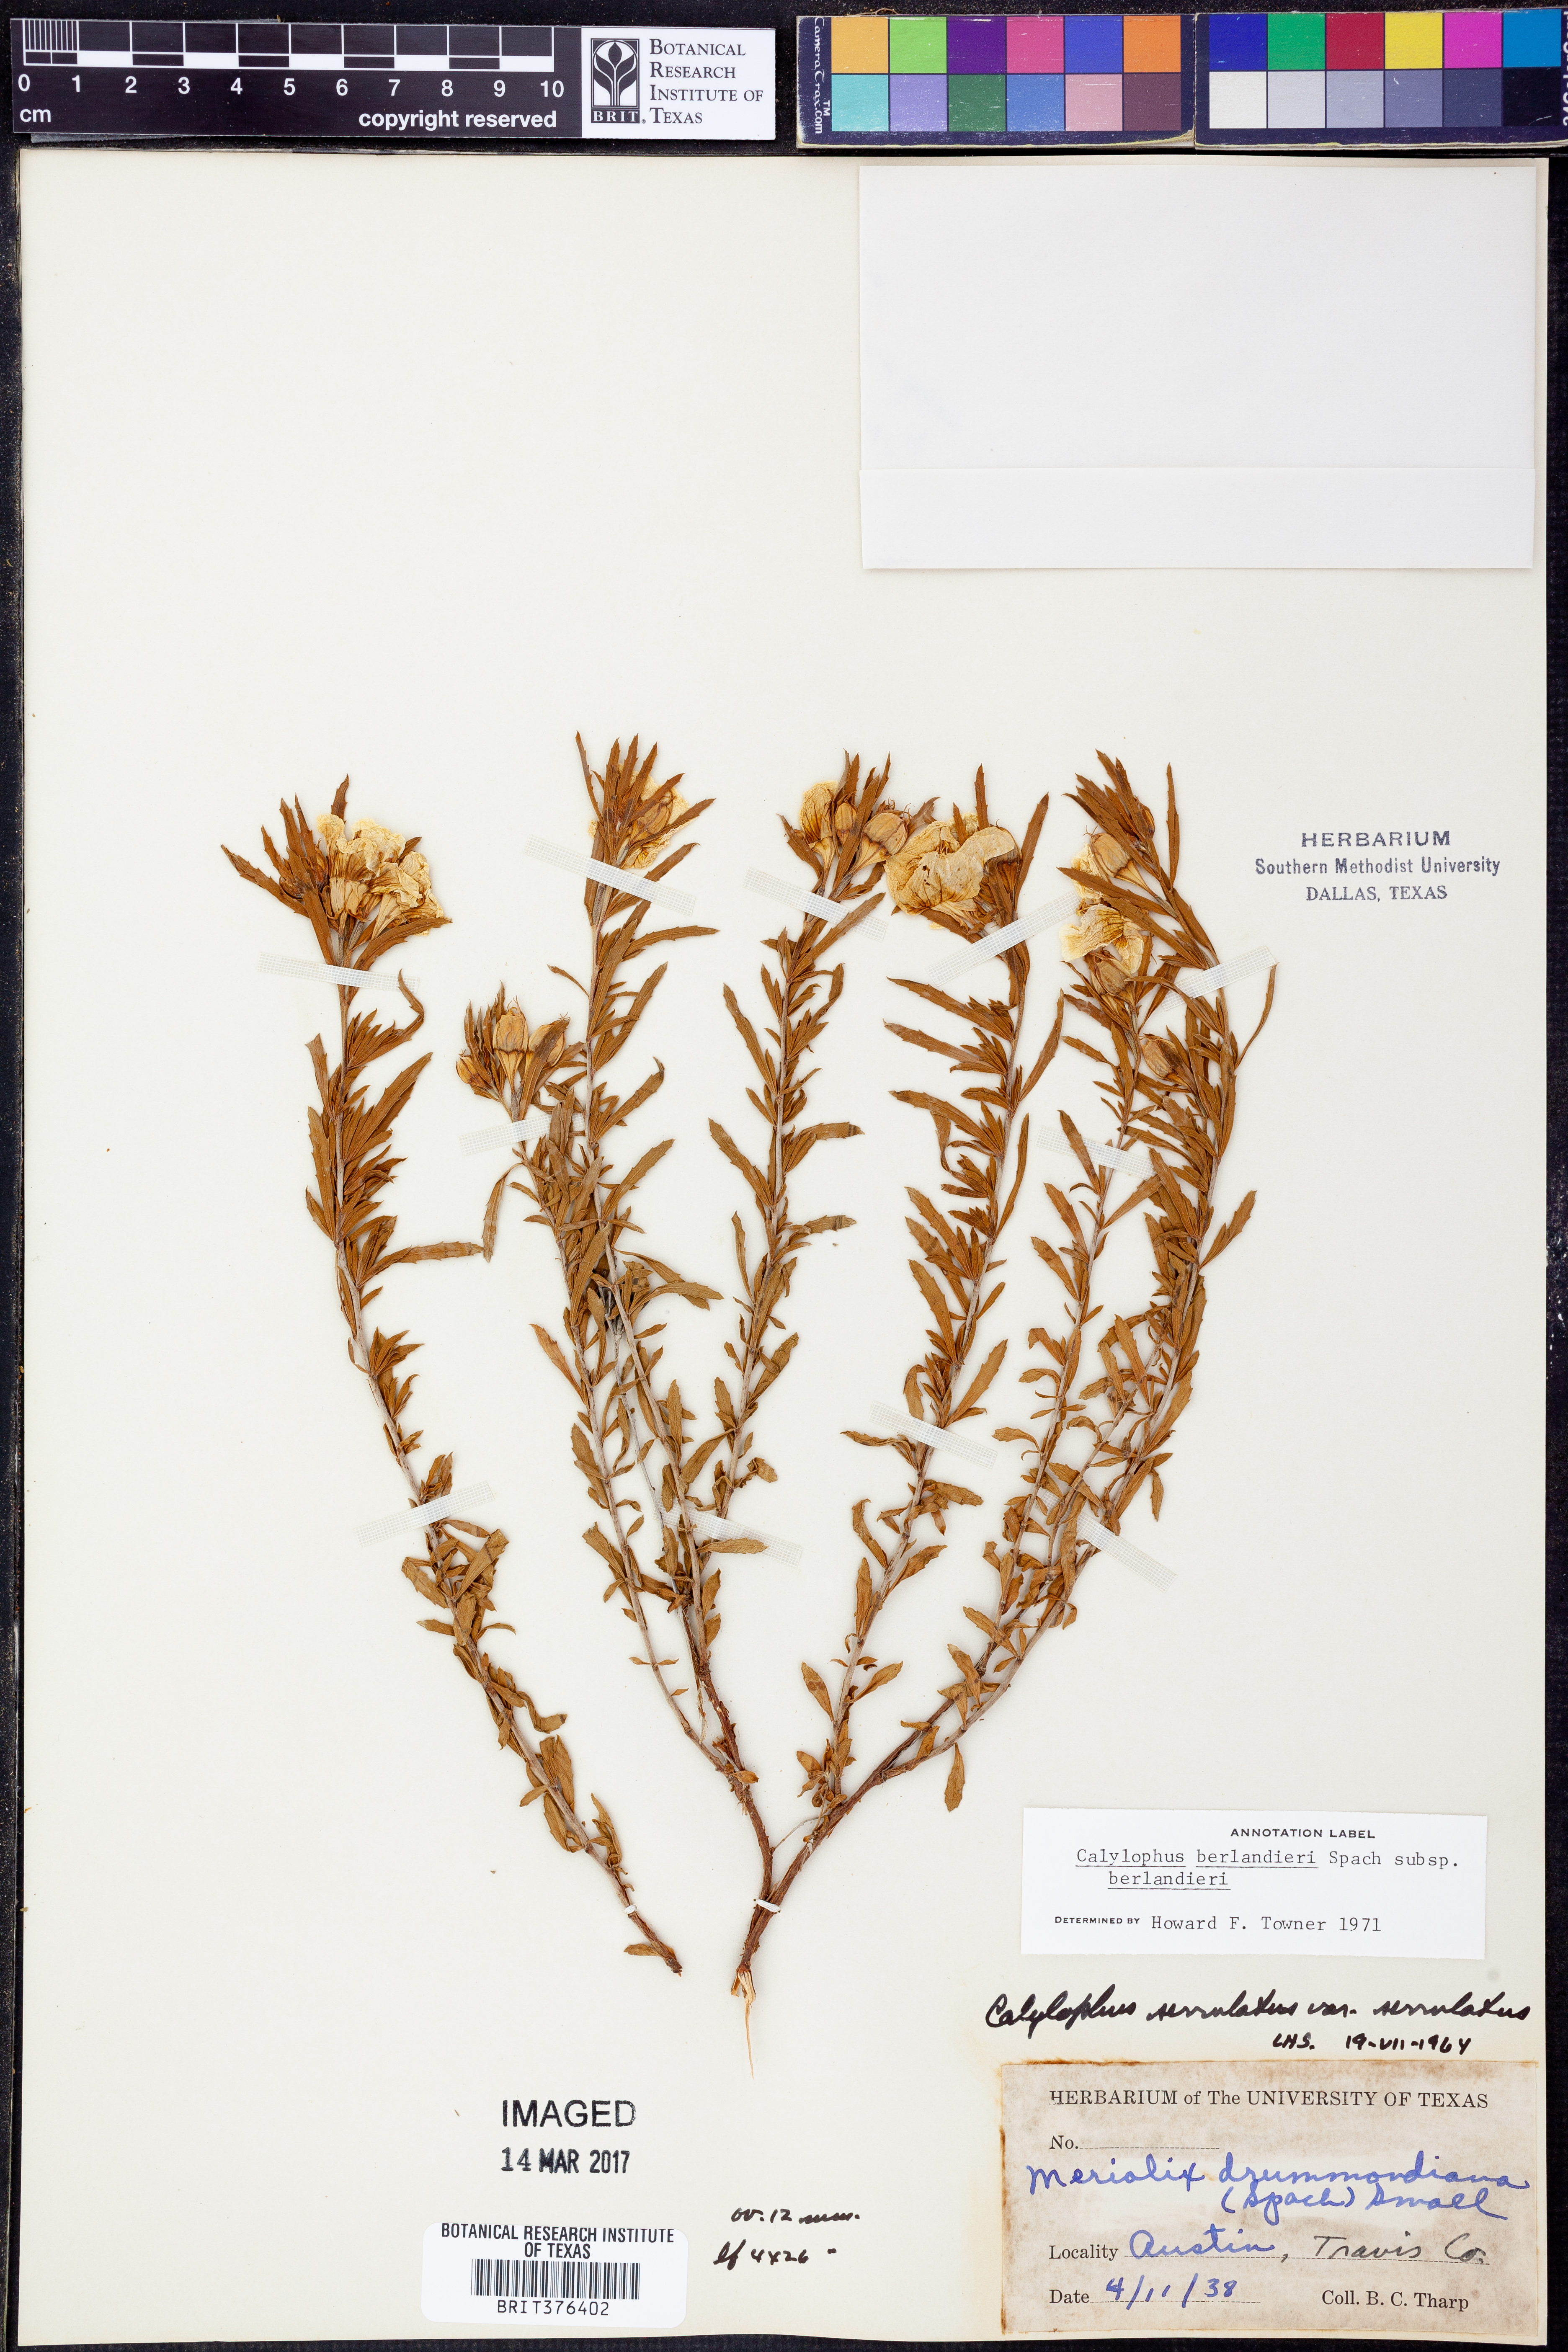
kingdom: Plantae
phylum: Tracheophyta
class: Magnoliopsida
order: Myrtales
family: Onagraceae
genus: Oenothera
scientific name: Oenothera capillifolia
